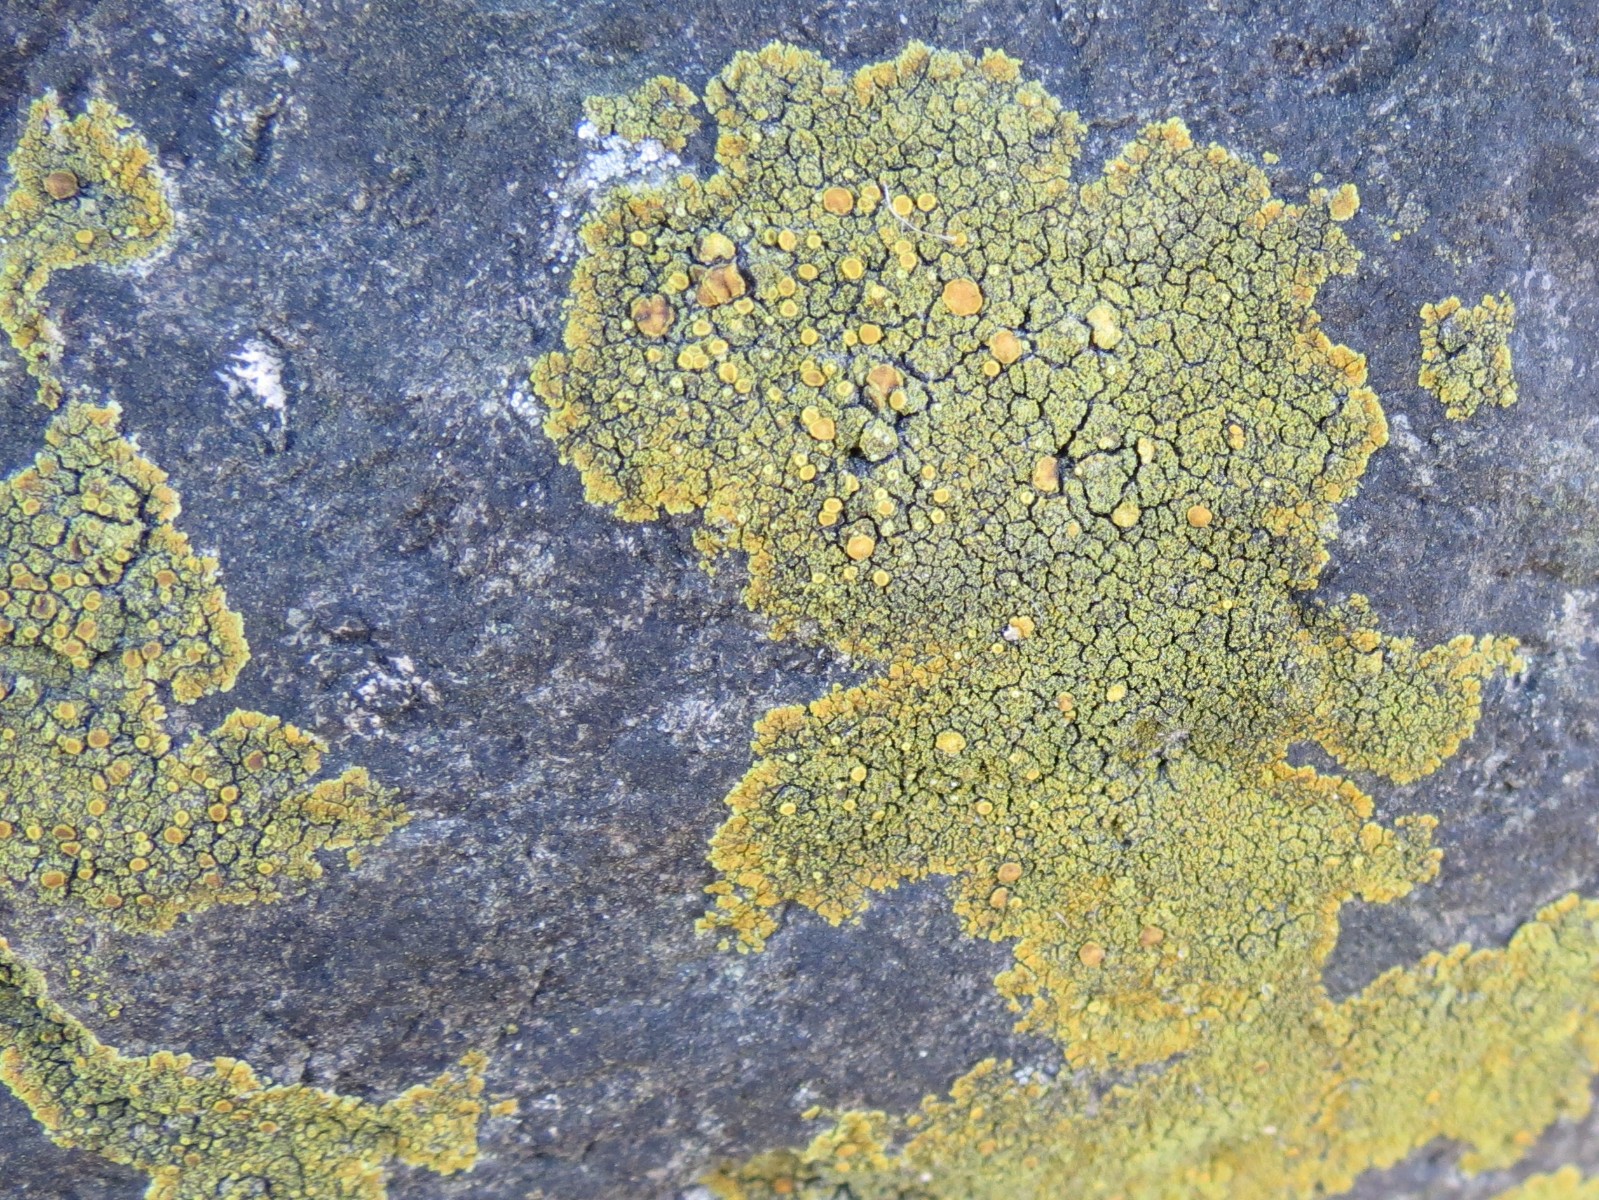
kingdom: Fungi
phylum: Ascomycota
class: Candelariomycetes
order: Candelariales
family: Candelariaceae
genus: Candelariella
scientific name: Candelariella vitellina
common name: almindelig æggeblommelav
